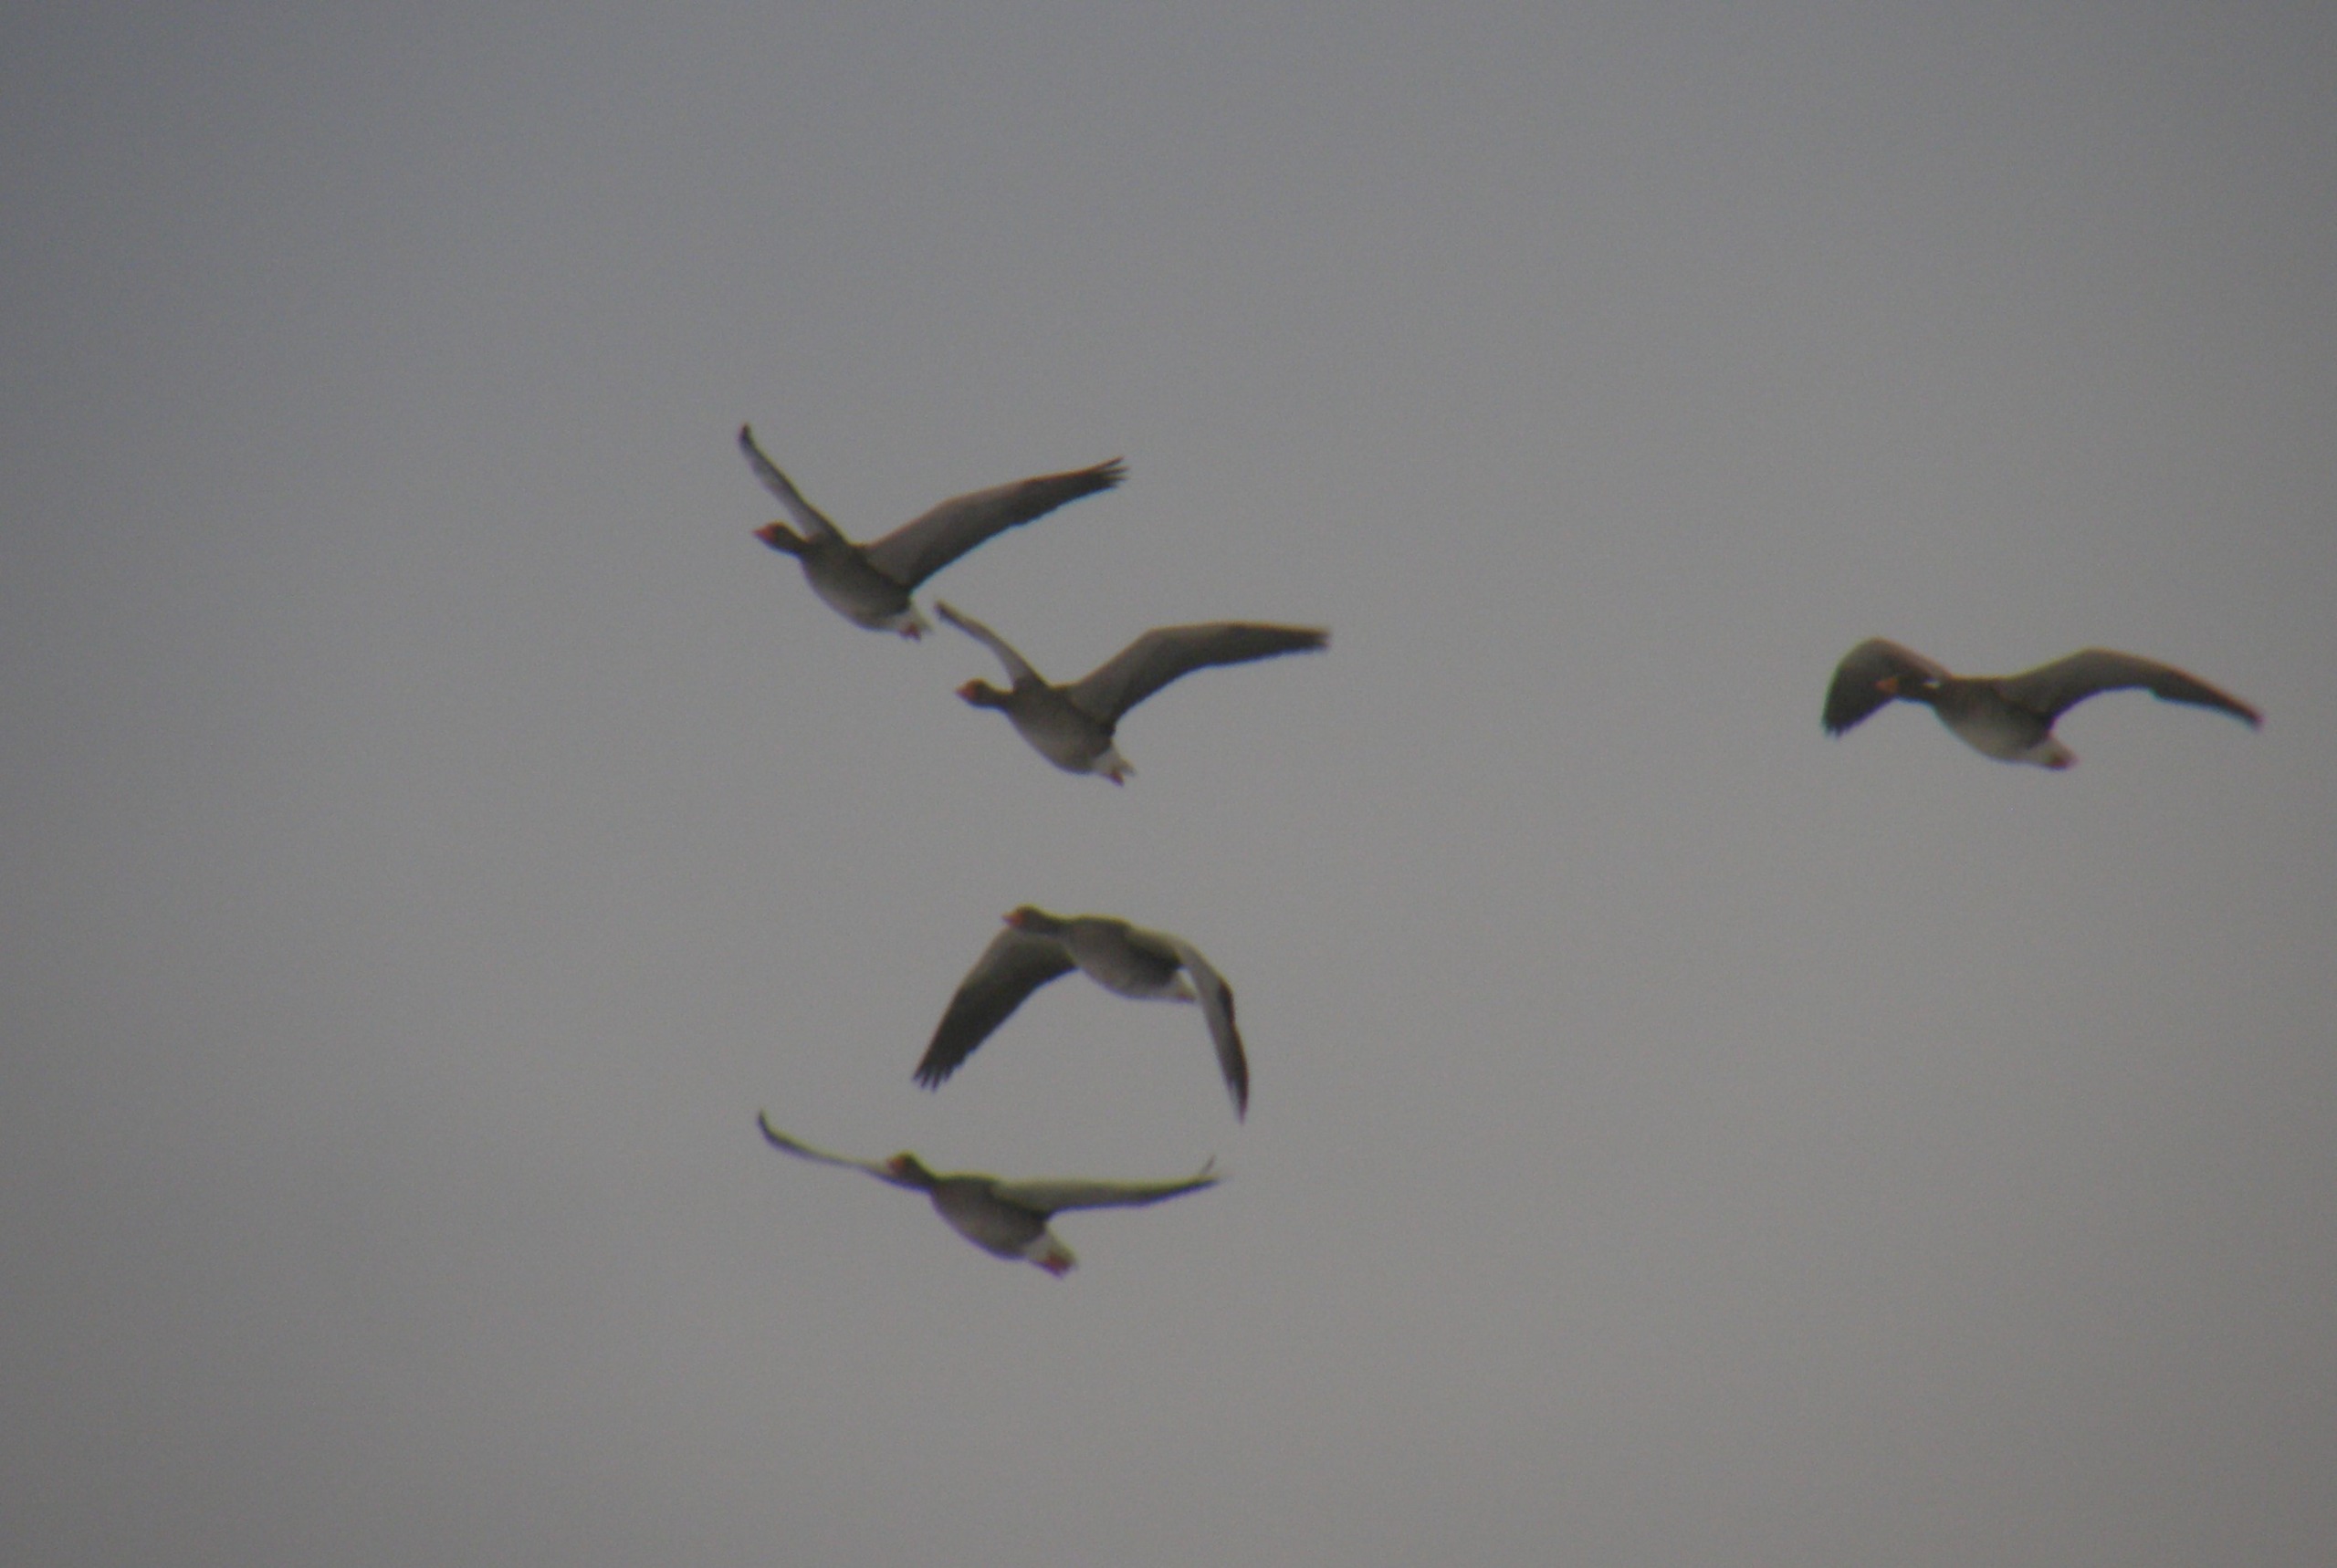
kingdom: Animalia
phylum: Chordata
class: Aves
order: Anseriformes
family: Anatidae
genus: Anser
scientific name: Anser anser
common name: Grågås
